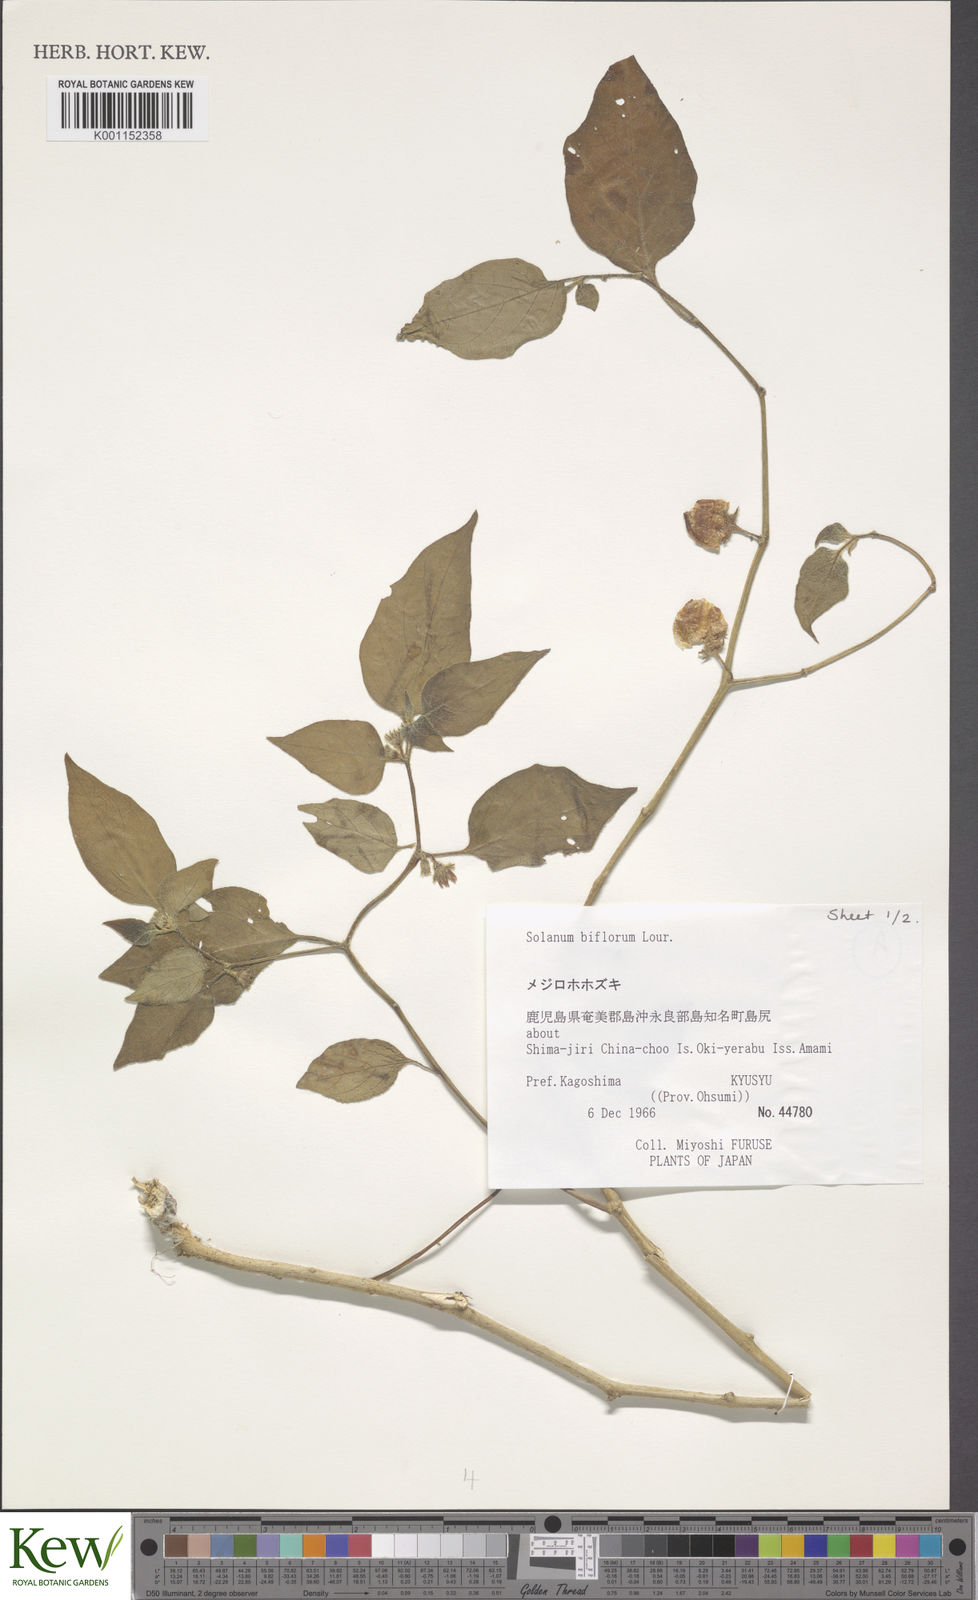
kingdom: Plantae
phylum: Tracheophyta
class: Magnoliopsida
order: Solanales
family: Solanaceae
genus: Lycianthes
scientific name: Lycianthes biflora
